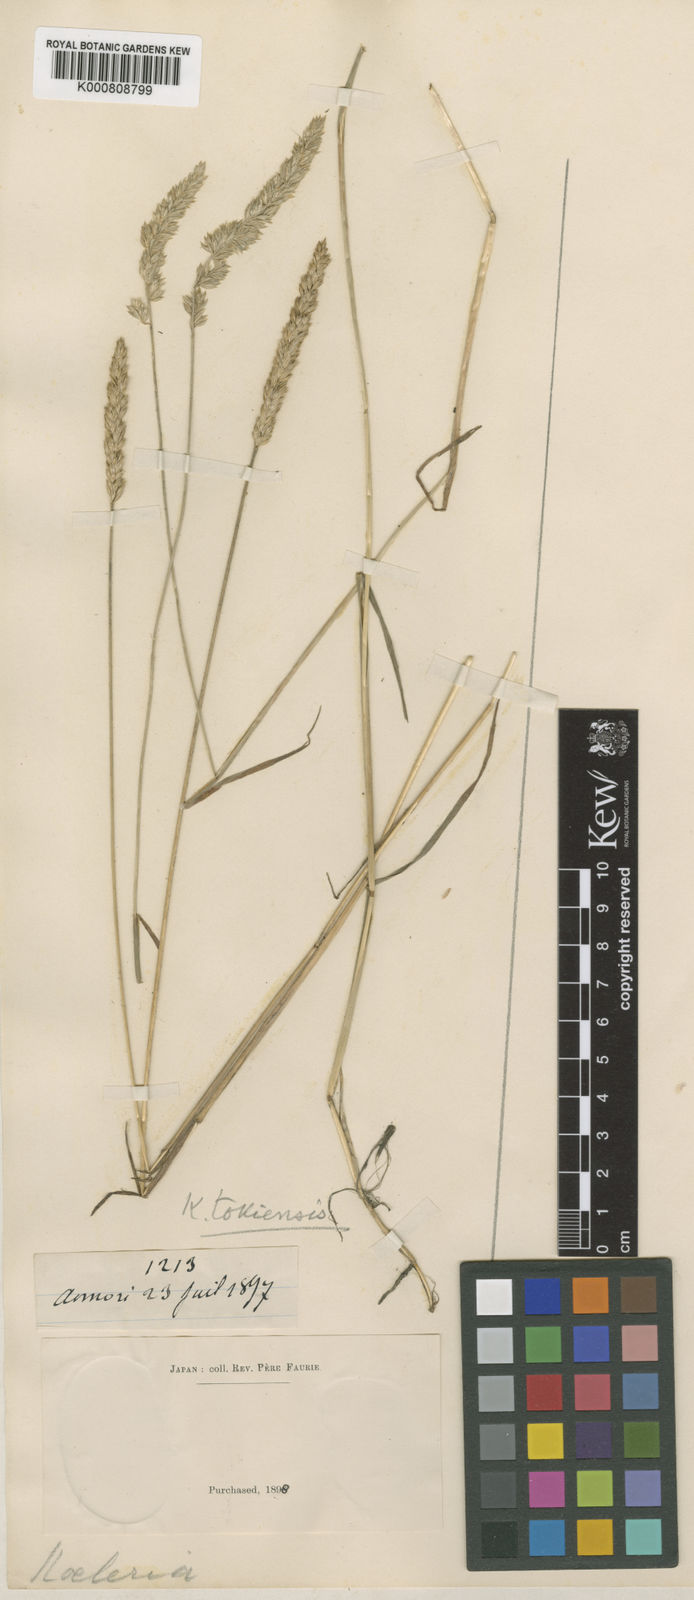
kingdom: Plantae
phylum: Tracheophyta
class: Liliopsida
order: Poales
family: Poaceae
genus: Koeleria
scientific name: Koeleria macrantha
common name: Crested hair-grass
